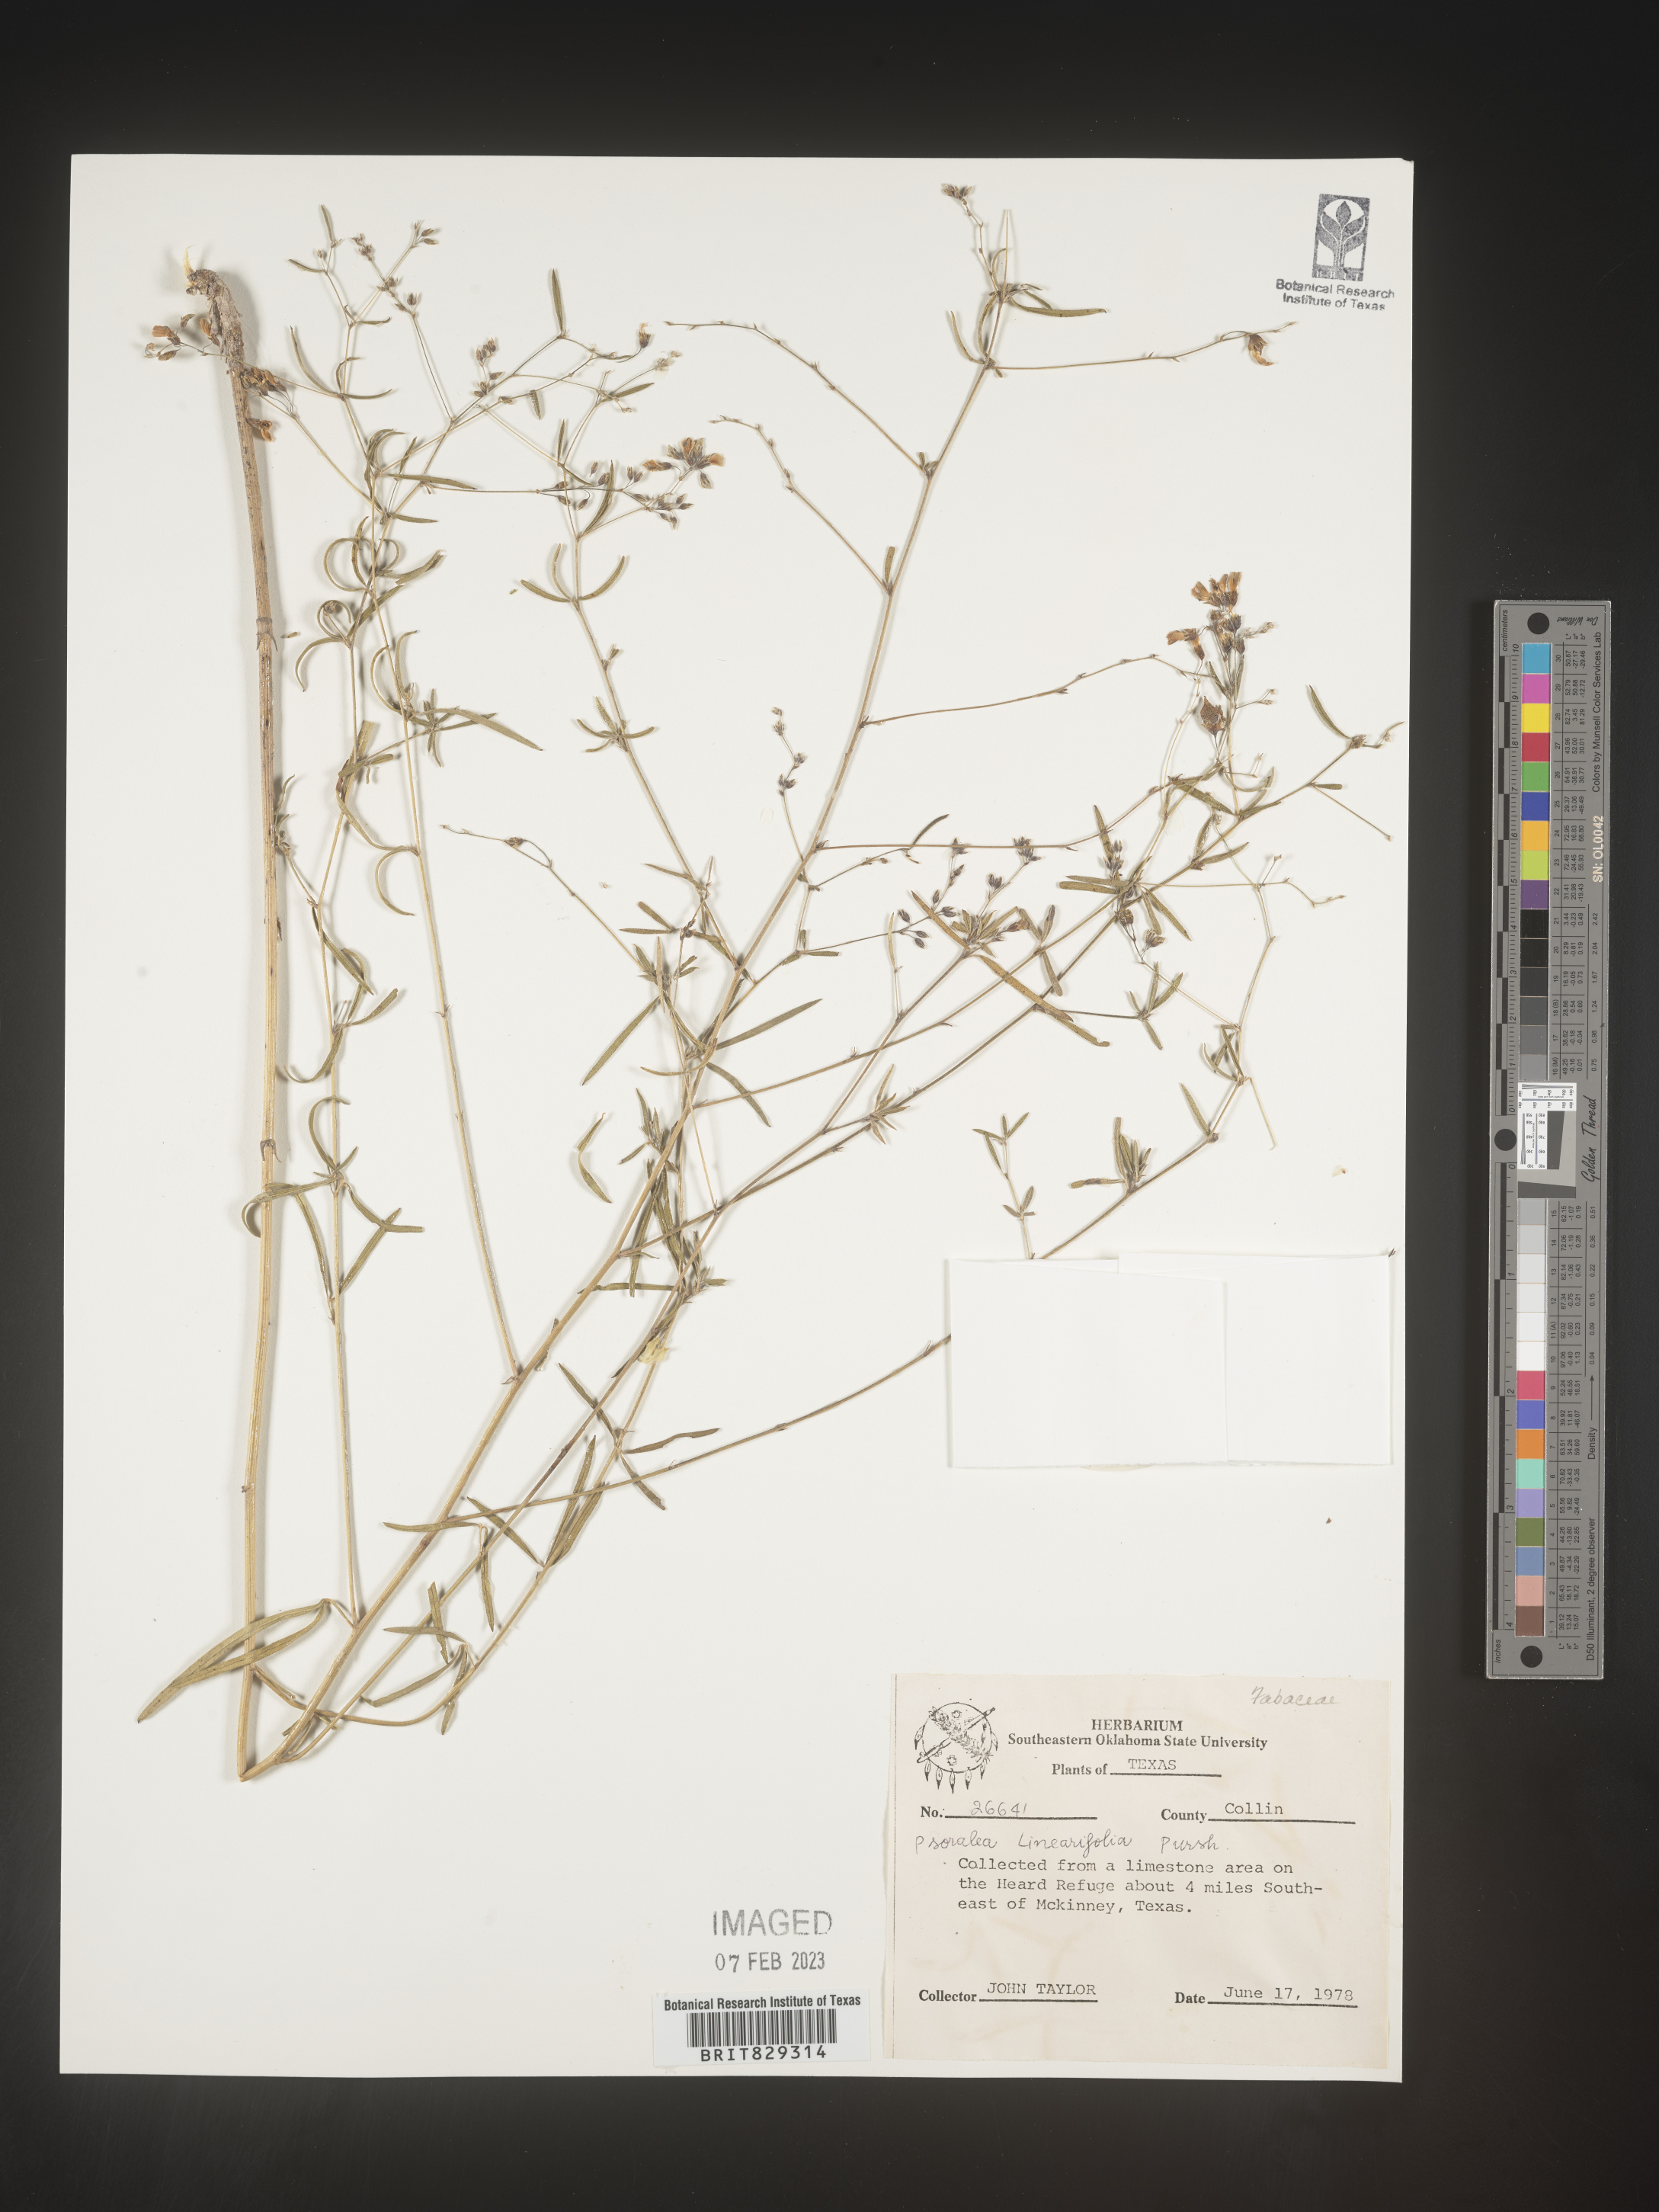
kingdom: Plantae
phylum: Tracheophyta
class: Magnoliopsida
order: Fabales
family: Fabaceae
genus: Pediomelum
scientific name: Pediomelum linearifolium
